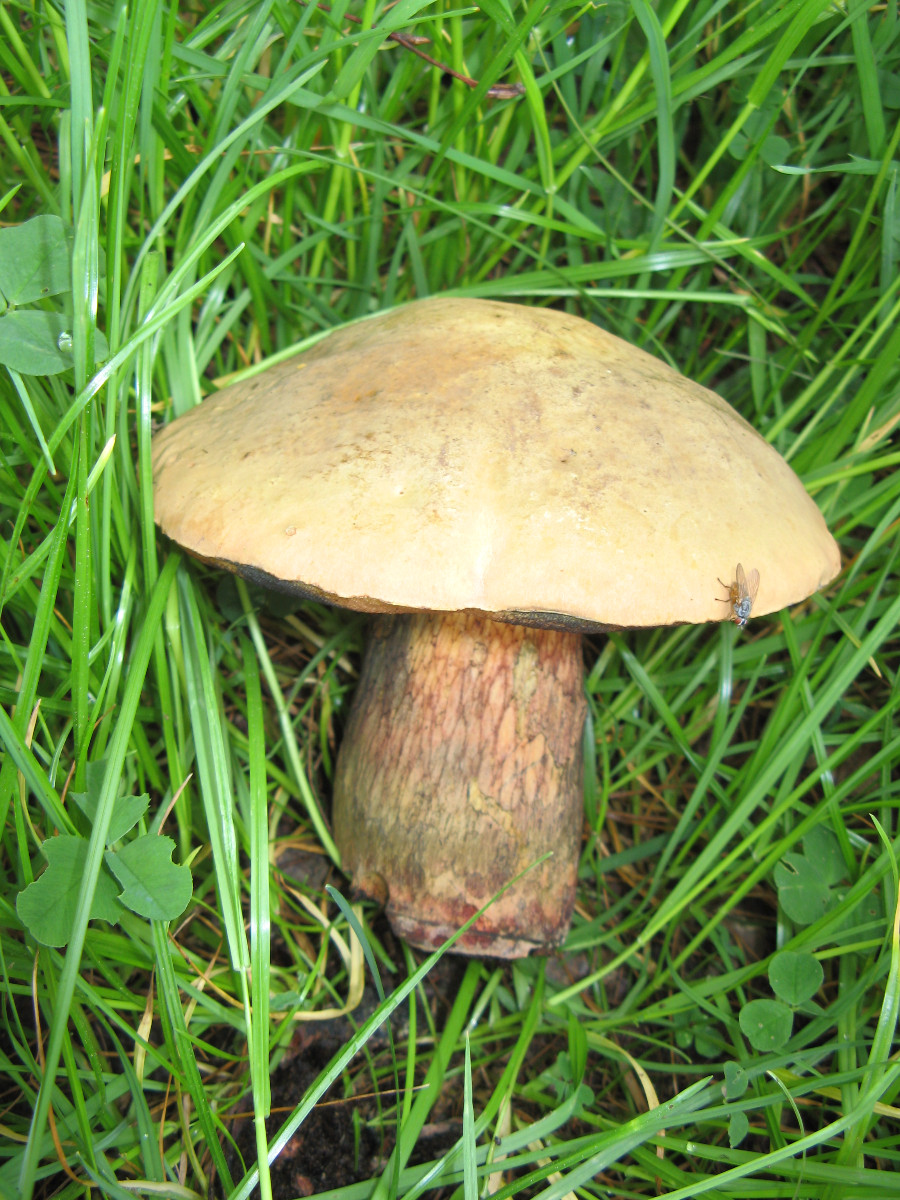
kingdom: Fungi
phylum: Basidiomycota
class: Agaricomycetes
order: Boletales
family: Boletaceae
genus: Suillellus
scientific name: Suillellus luridus
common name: netstokket indigorørhat
